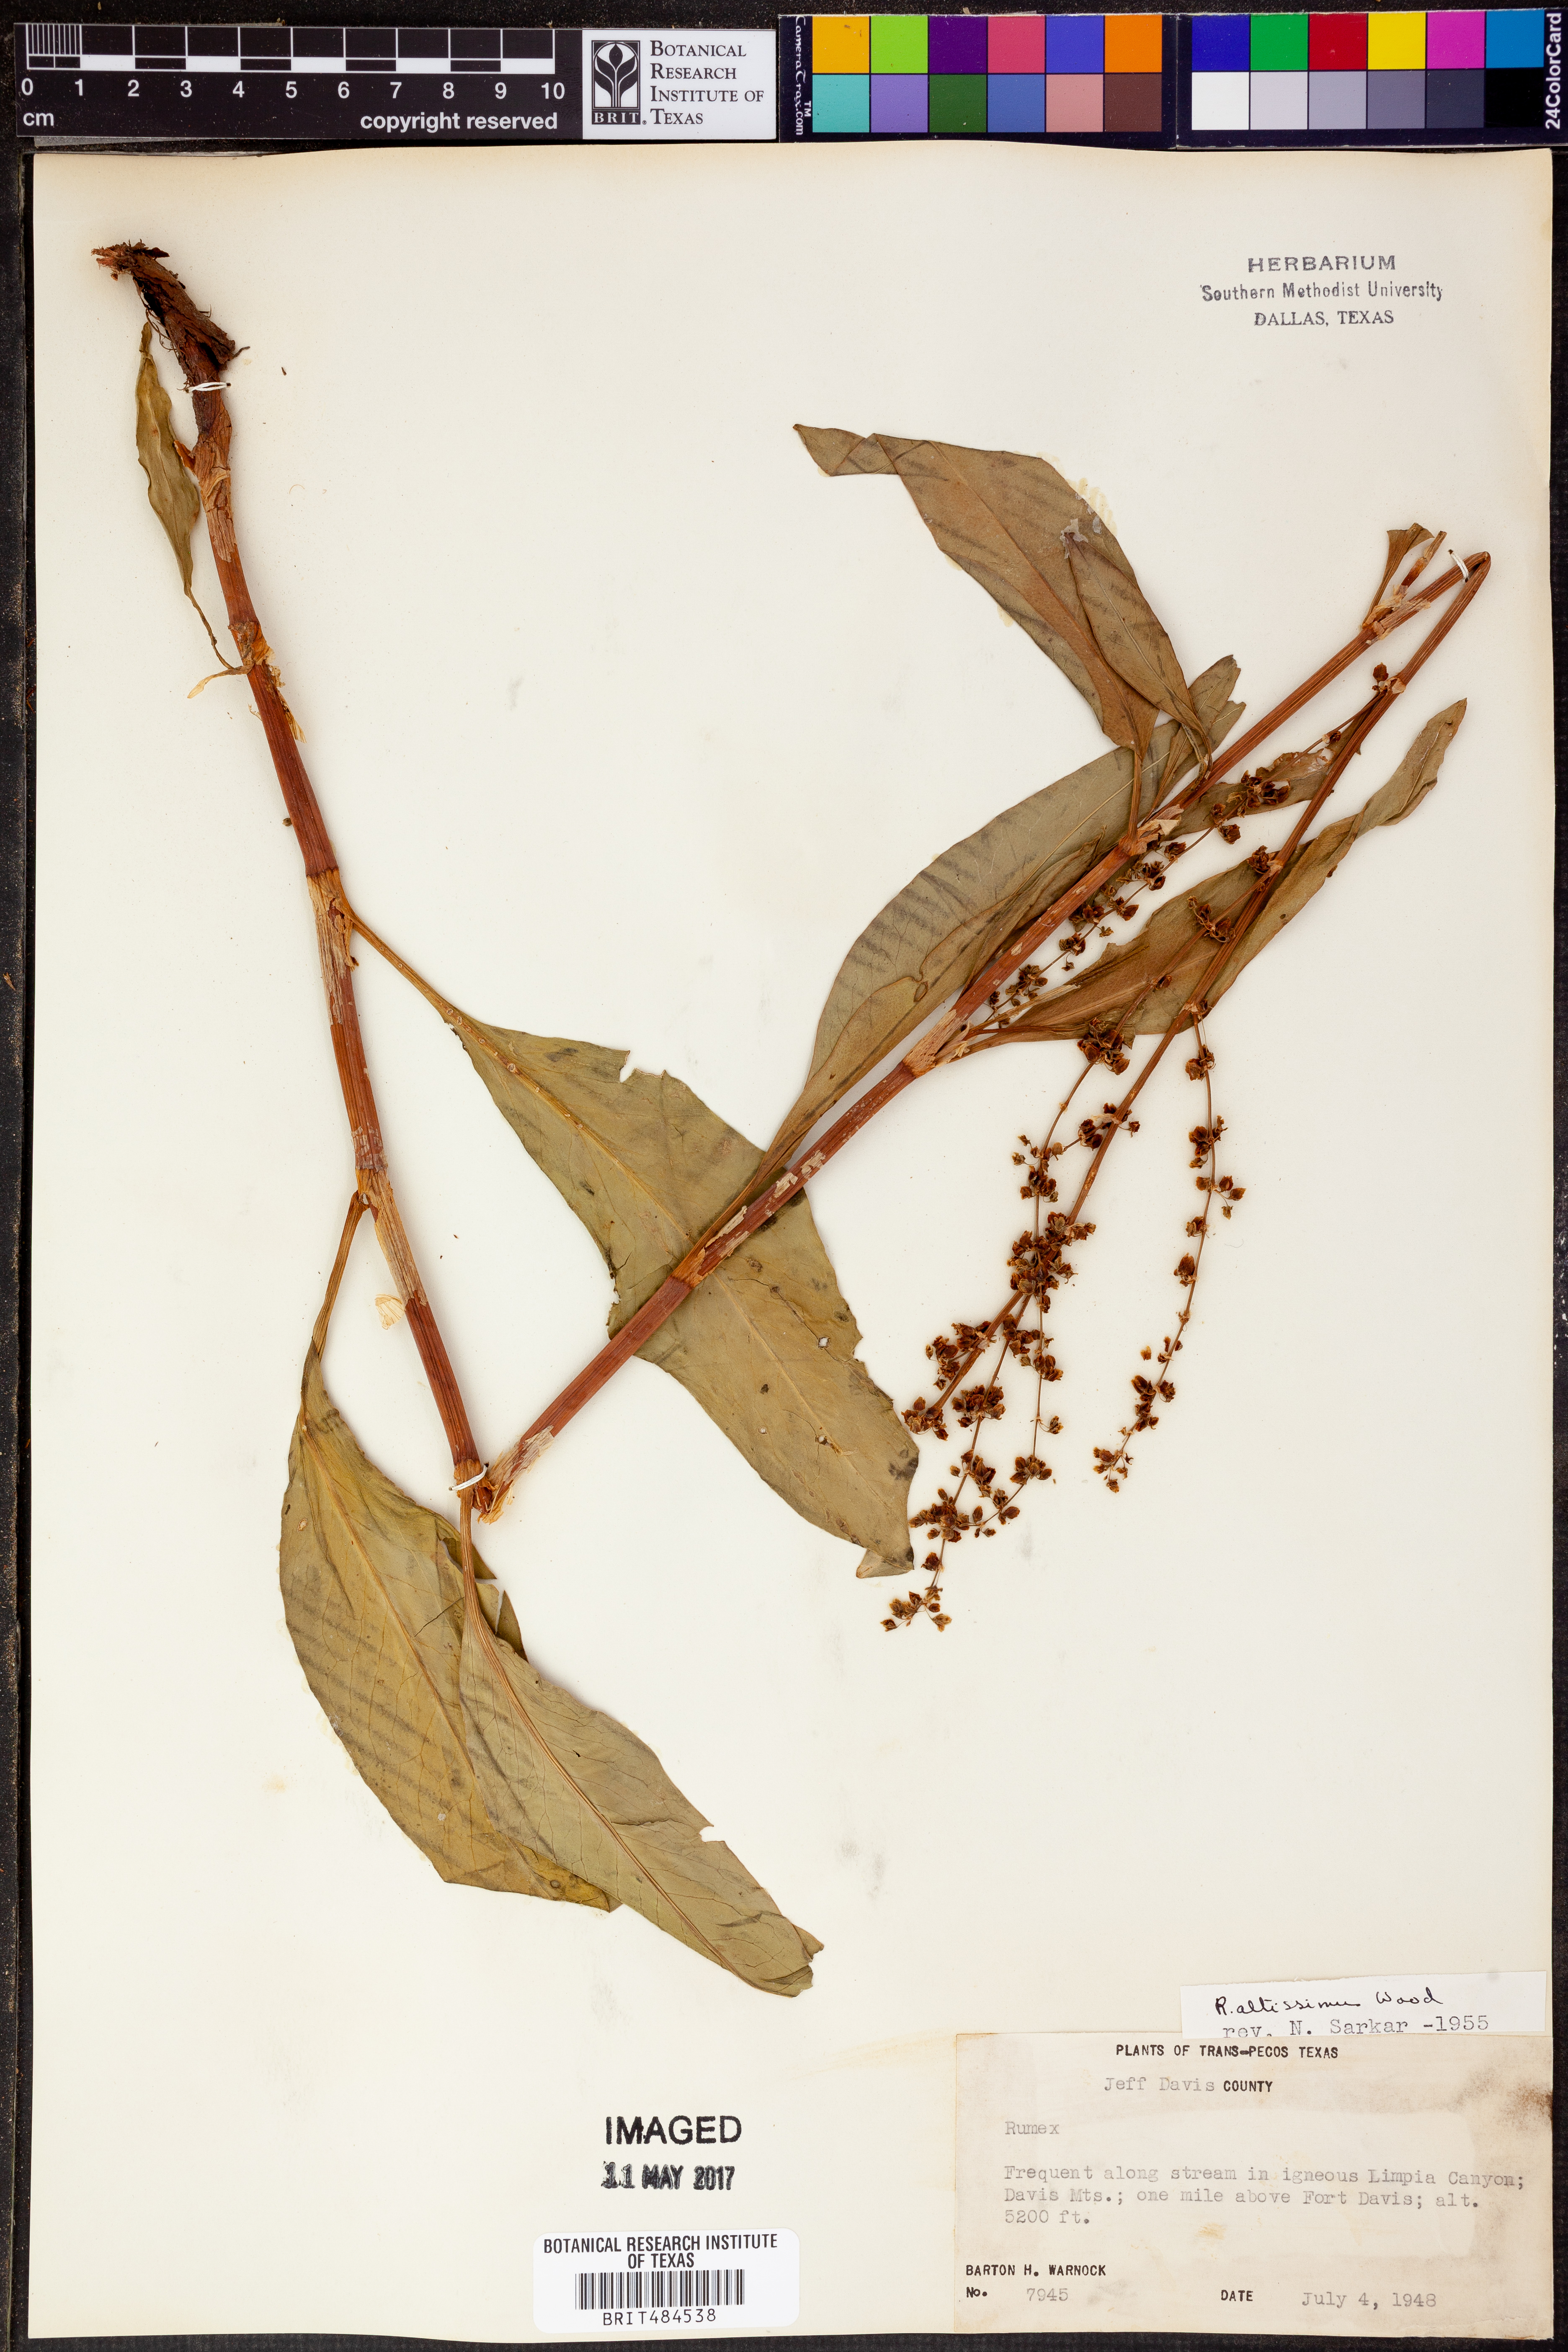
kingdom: Plantae
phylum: Tracheophyta
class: Magnoliopsida
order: Caryophyllales
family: Polygonaceae
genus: Rumex
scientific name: Rumex altissimus
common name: Smooth dock
